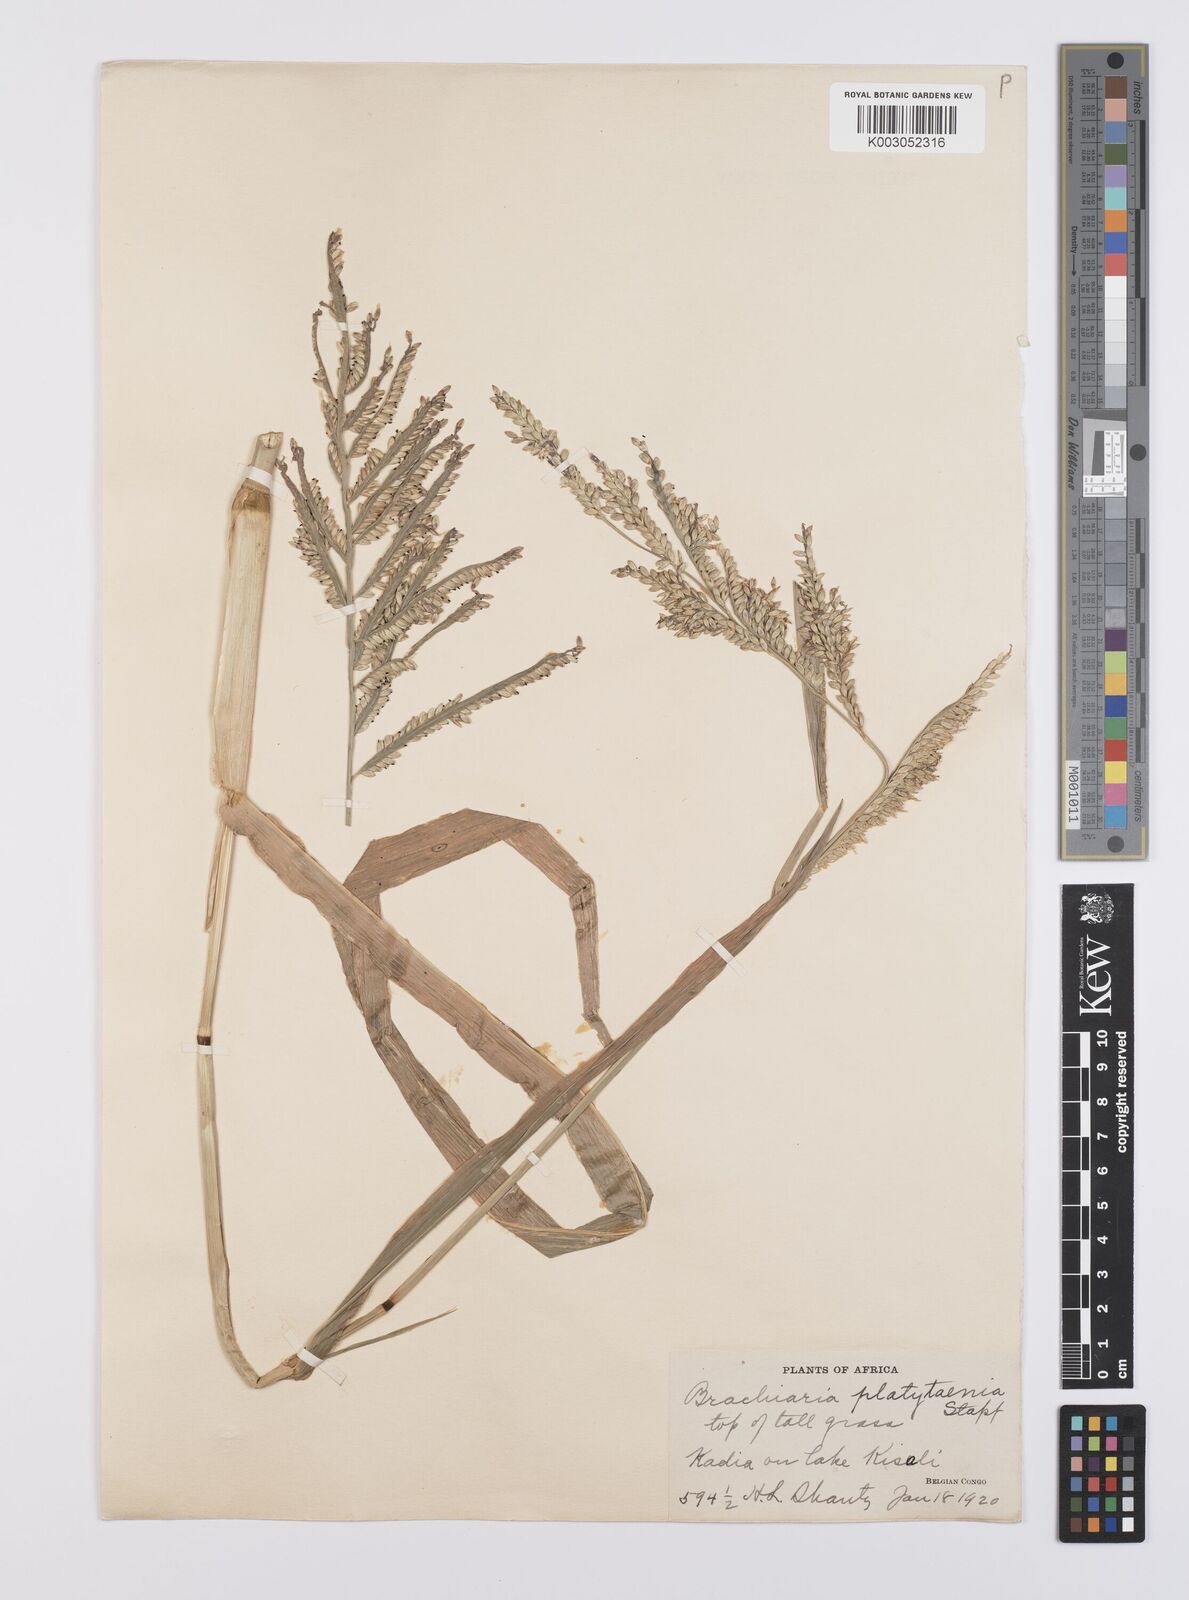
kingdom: Plantae
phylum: Tracheophyta
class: Liliopsida
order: Poales
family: Poaceae
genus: Urochloa
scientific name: Urochloa oligobrachiata
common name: Weak signalgrass
